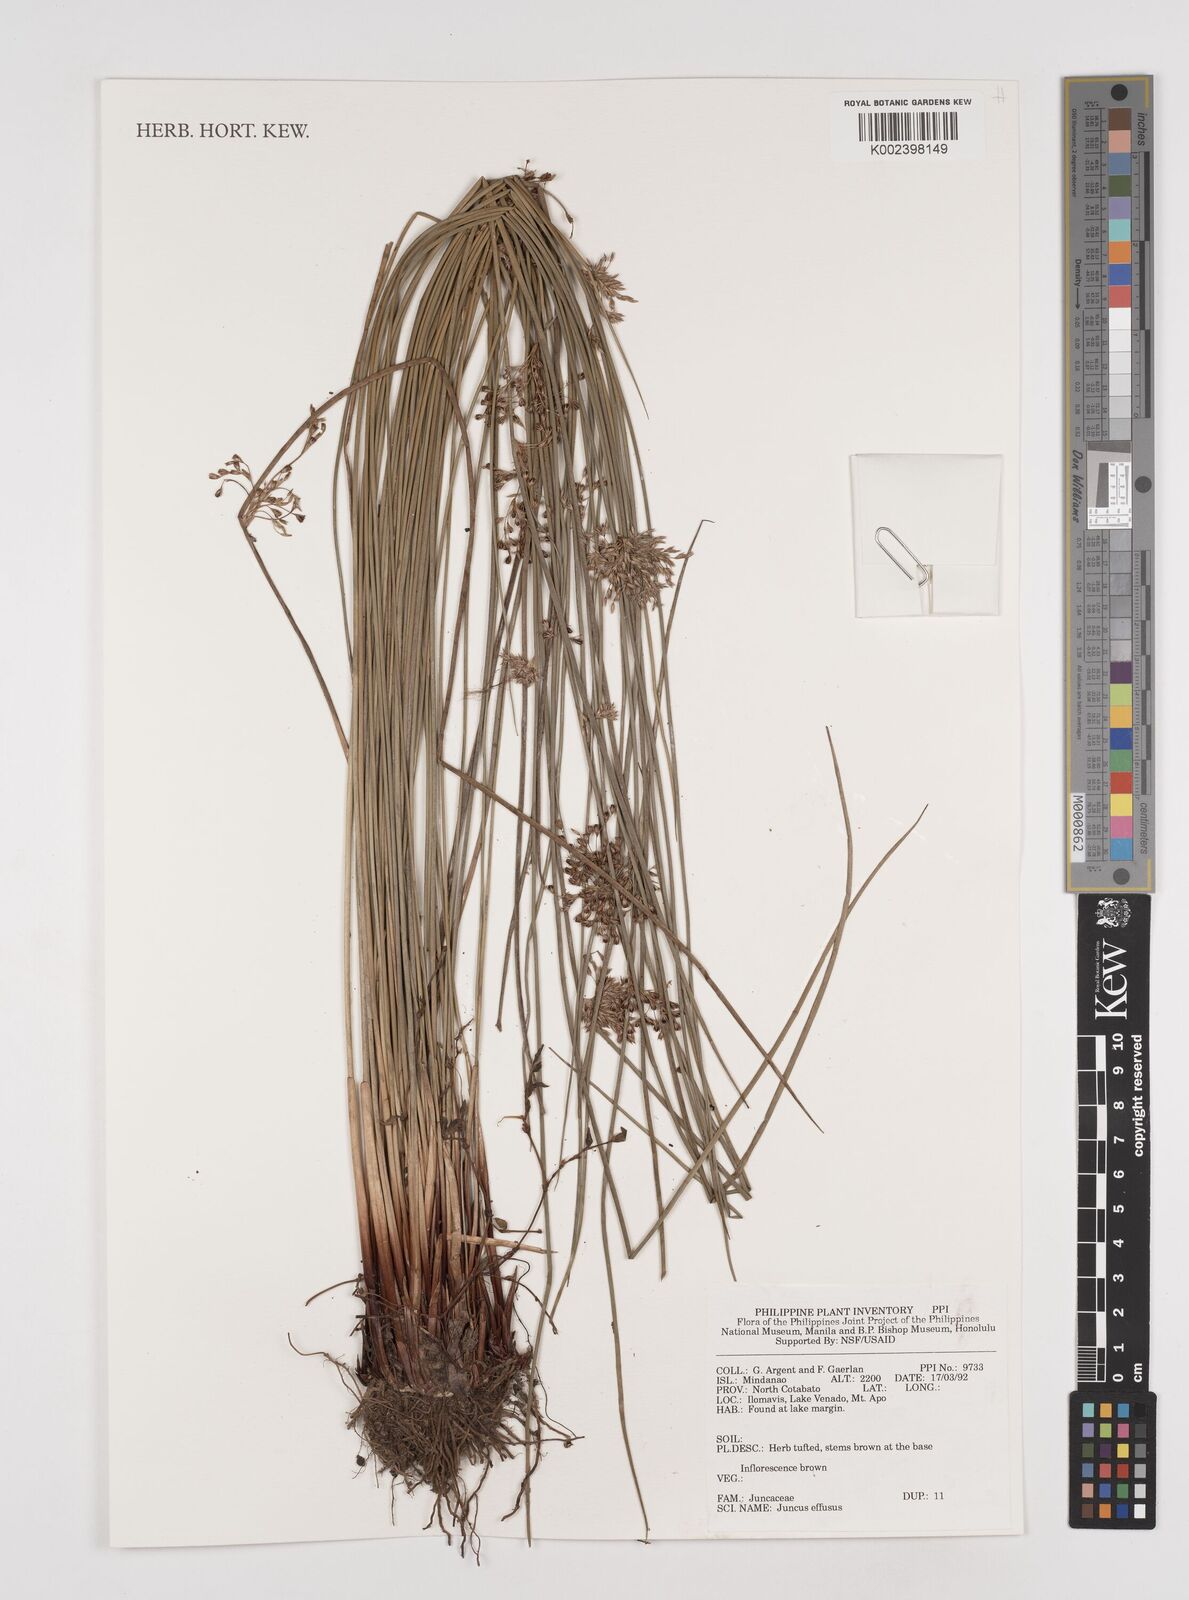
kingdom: Plantae
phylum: Tracheophyta
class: Liliopsida
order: Poales
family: Juncaceae
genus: Juncus
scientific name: Juncus decipiens
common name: Lamp rush
